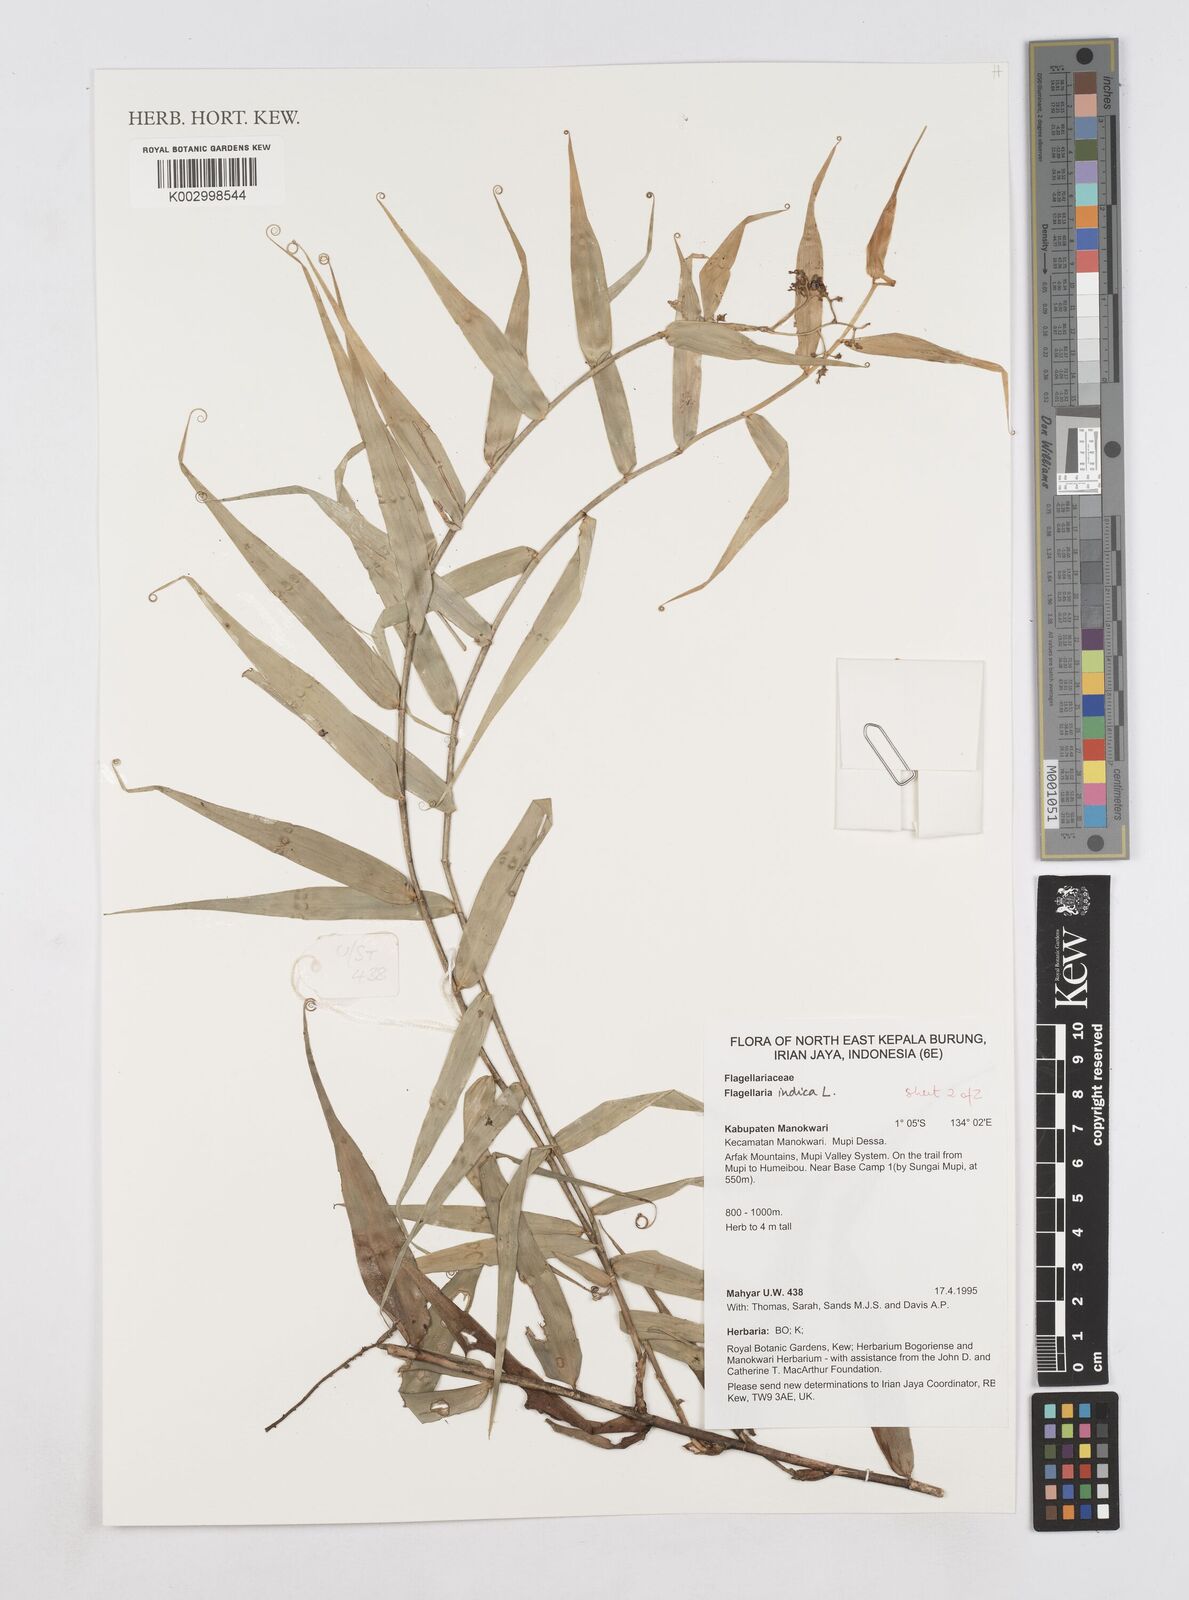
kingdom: Plantae
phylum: Tracheophyta
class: Liliopsida
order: Poales
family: Flagellariaceae
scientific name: Flagellariaceae
